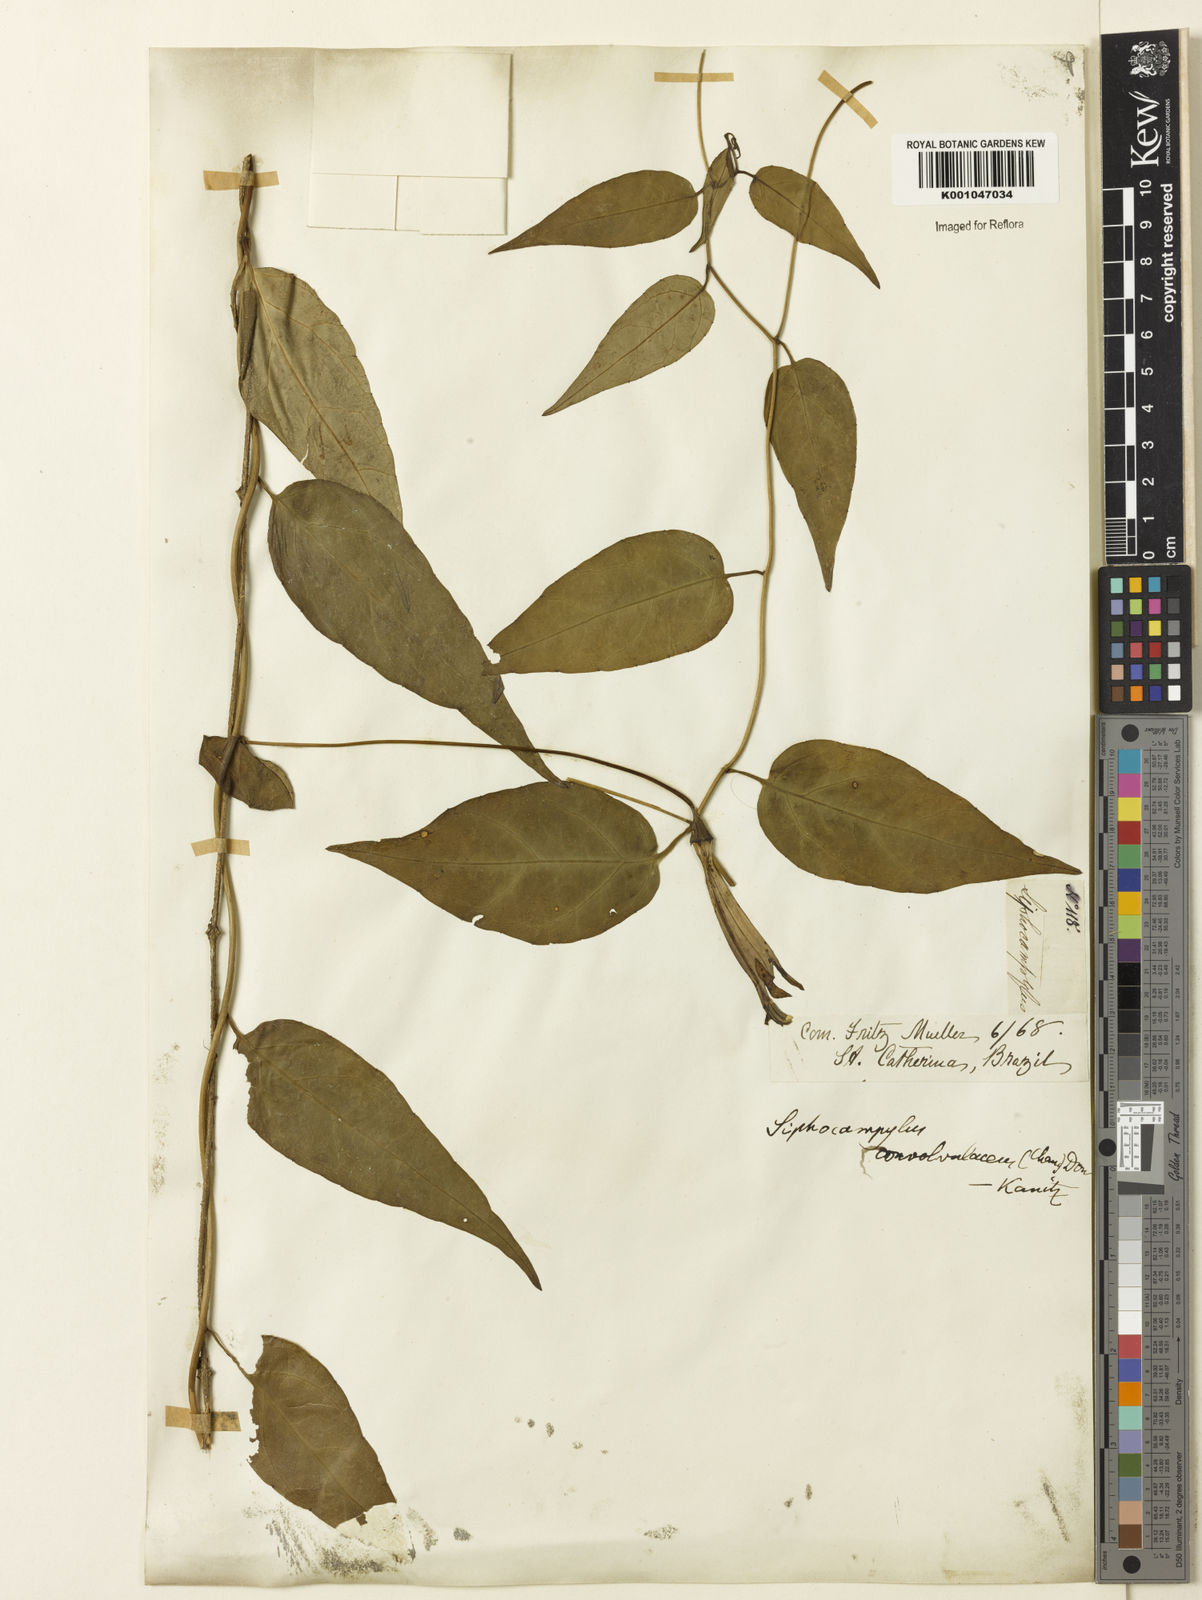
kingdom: Plantae
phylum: Tracheophyta
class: Magnoliopsida
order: Asterales
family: Campanulaceae
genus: Siphocampylus
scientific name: Siphocampylus convolvulaceus
